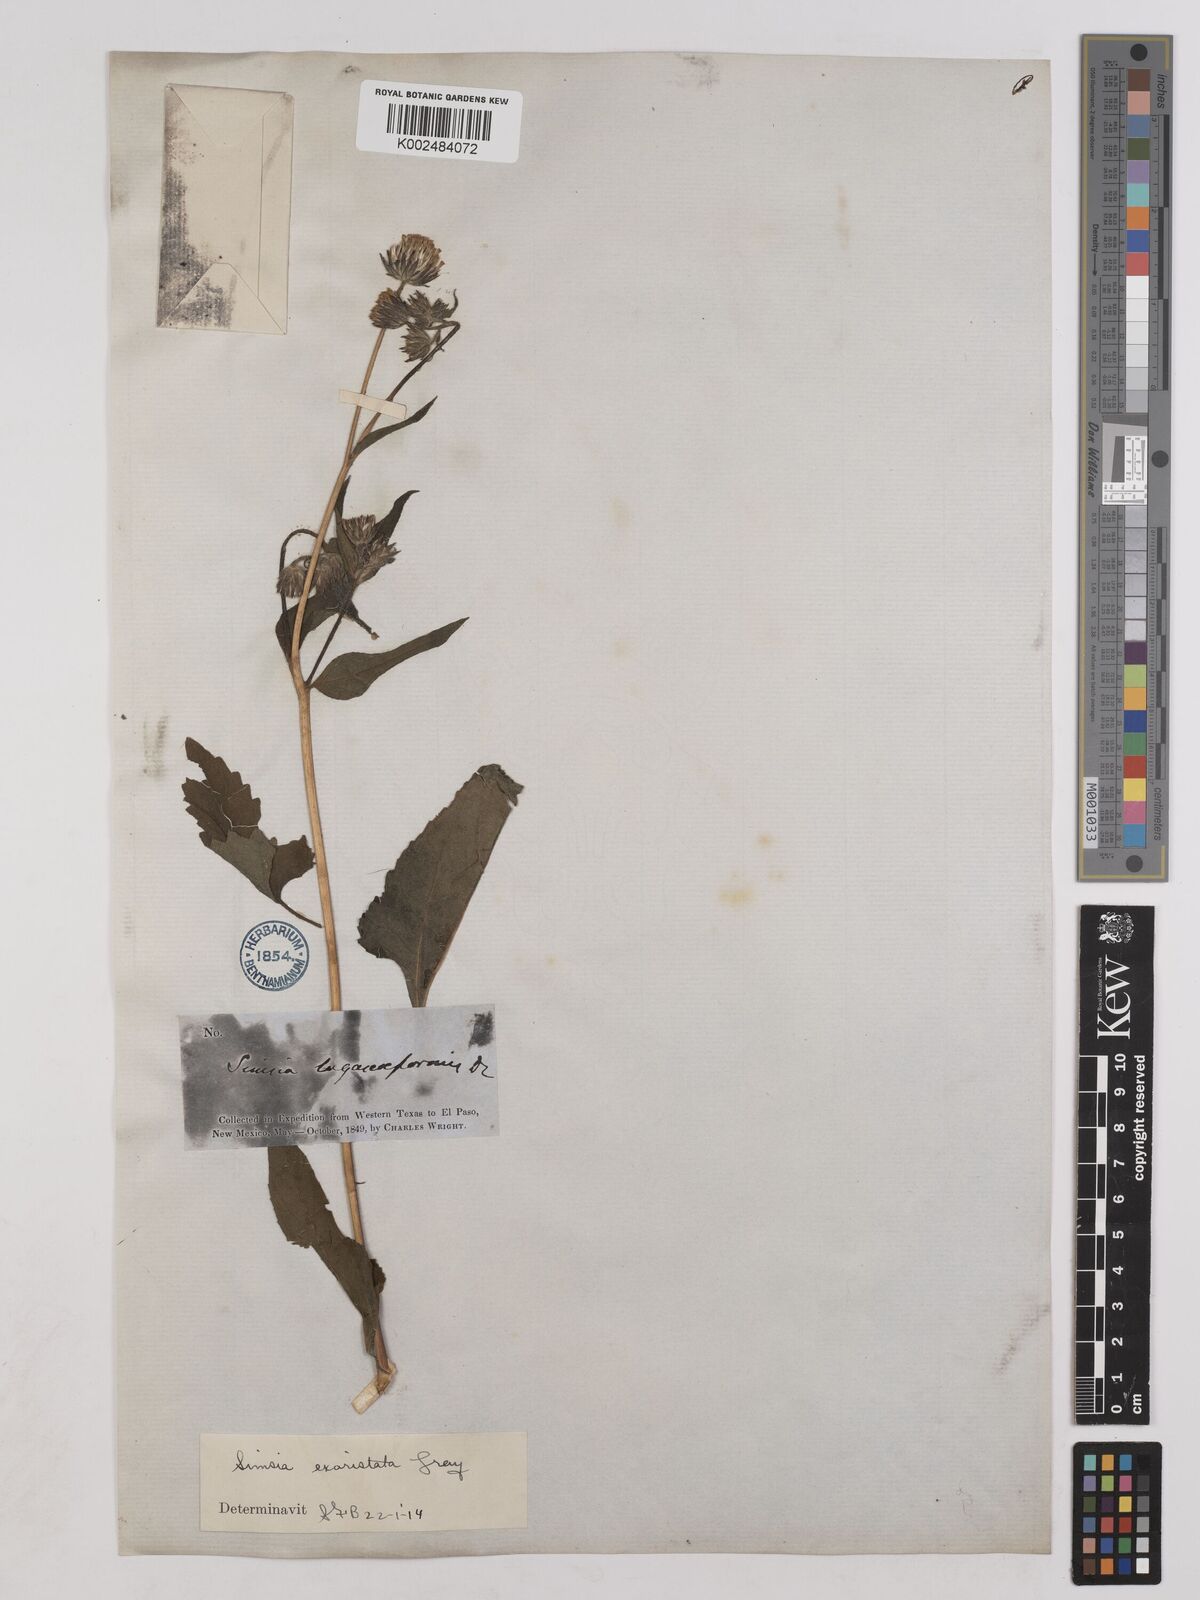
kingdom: Plantae
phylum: Tracheophyta
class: Magnoliopsida
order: Asterales
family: Asteraceae
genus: Simsia
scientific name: Simsia lagasceiformis
